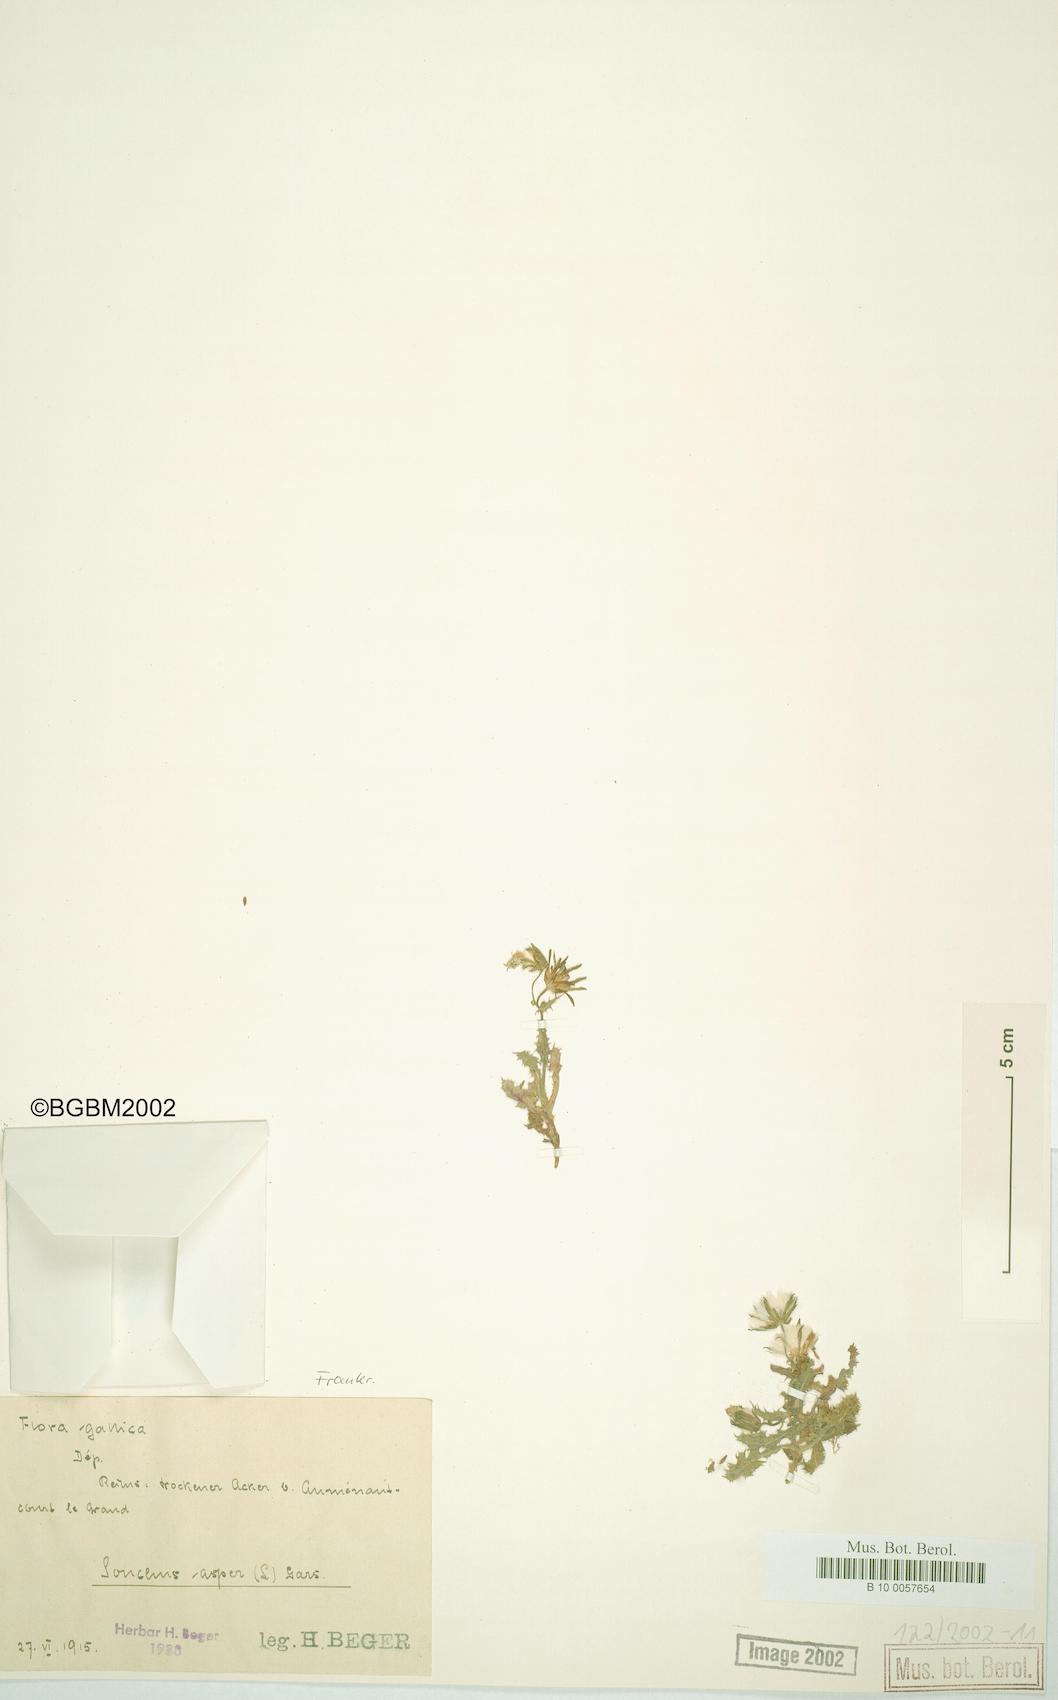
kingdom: Plantae
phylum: Tracheophyta
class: Magnoliopsida
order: Asterales
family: Asteraceae
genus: Sonchus
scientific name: Sonchus asper
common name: Prickly sow-thistle
